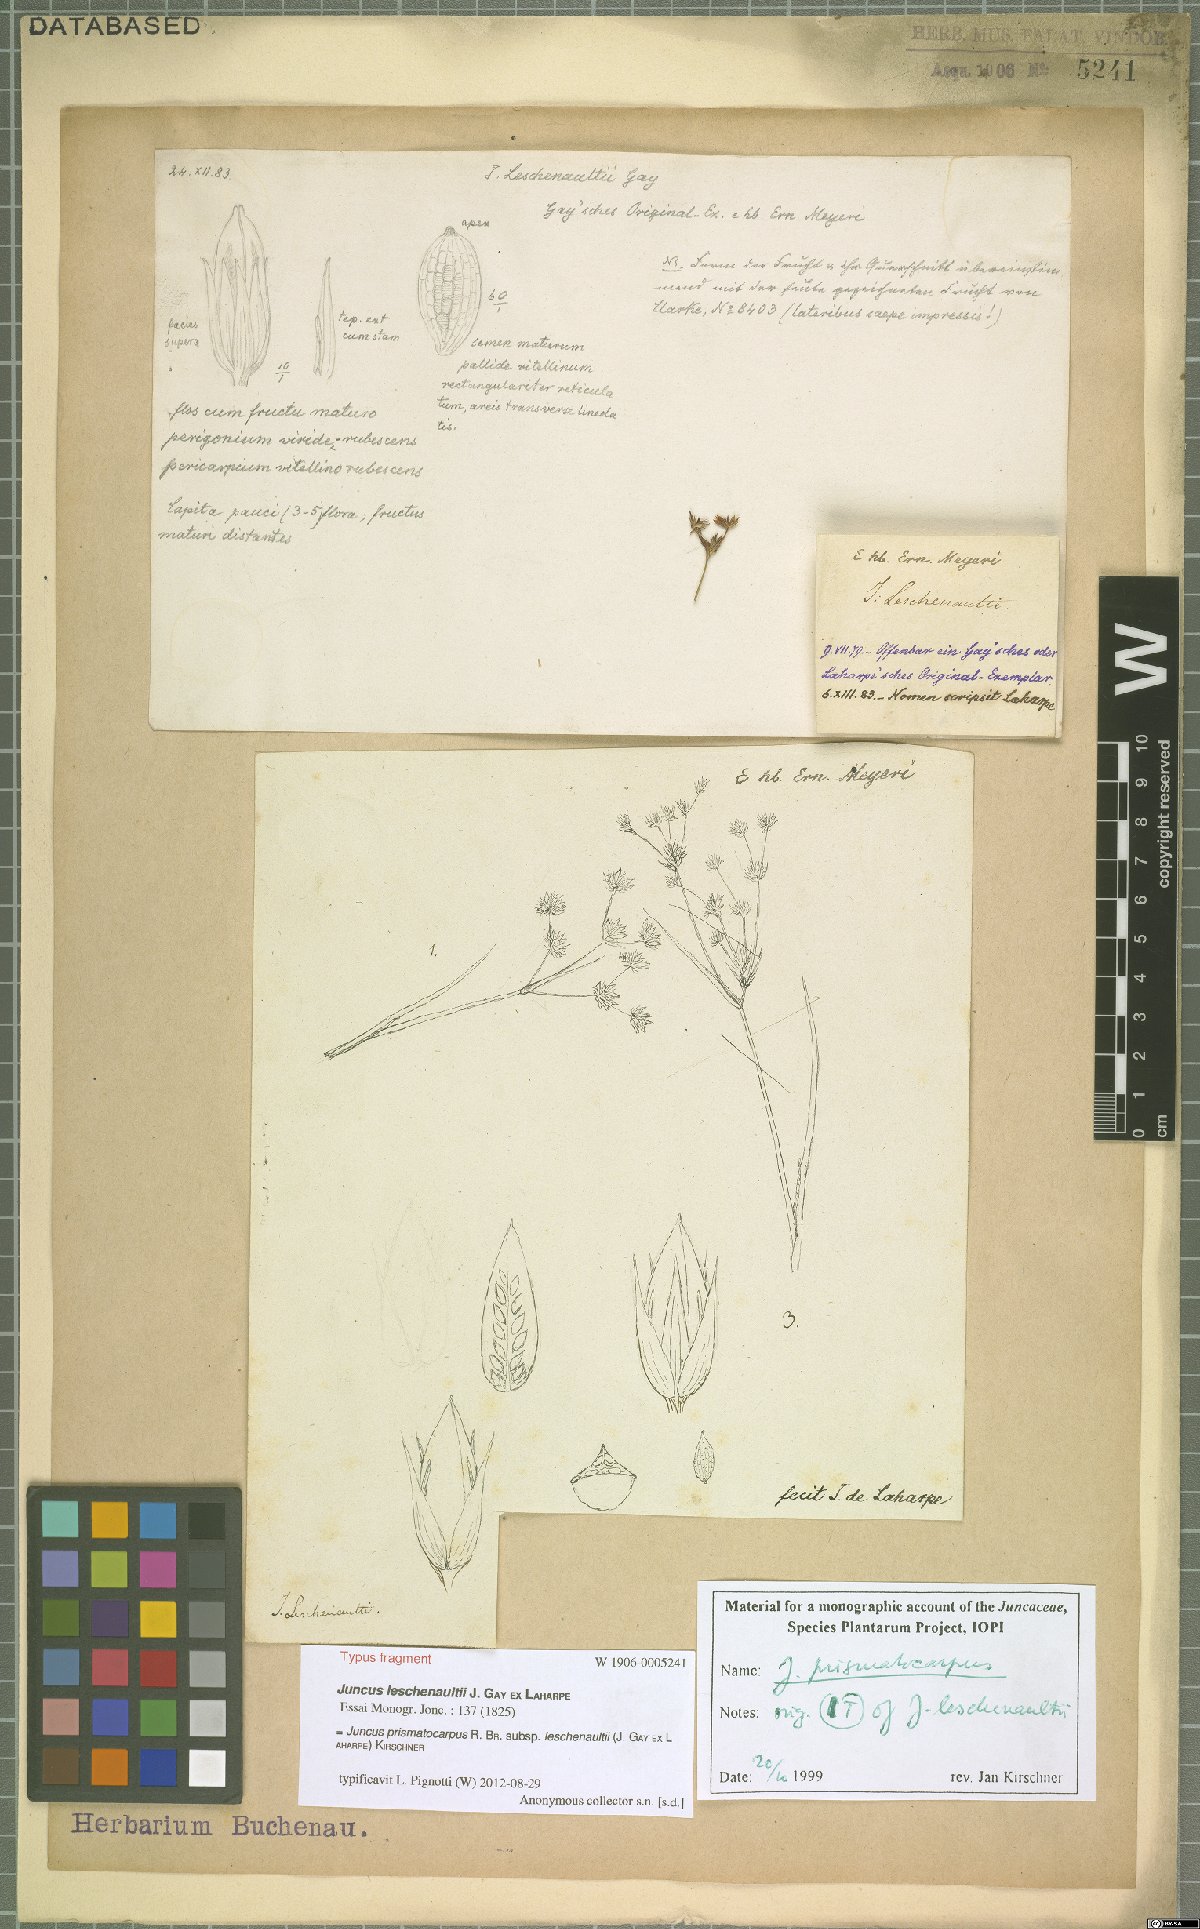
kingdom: Plantae
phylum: Tracheophyta
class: Liliopsida
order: Poales
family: Juncaceae
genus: Juncus
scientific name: Juncus prismatocarpus
